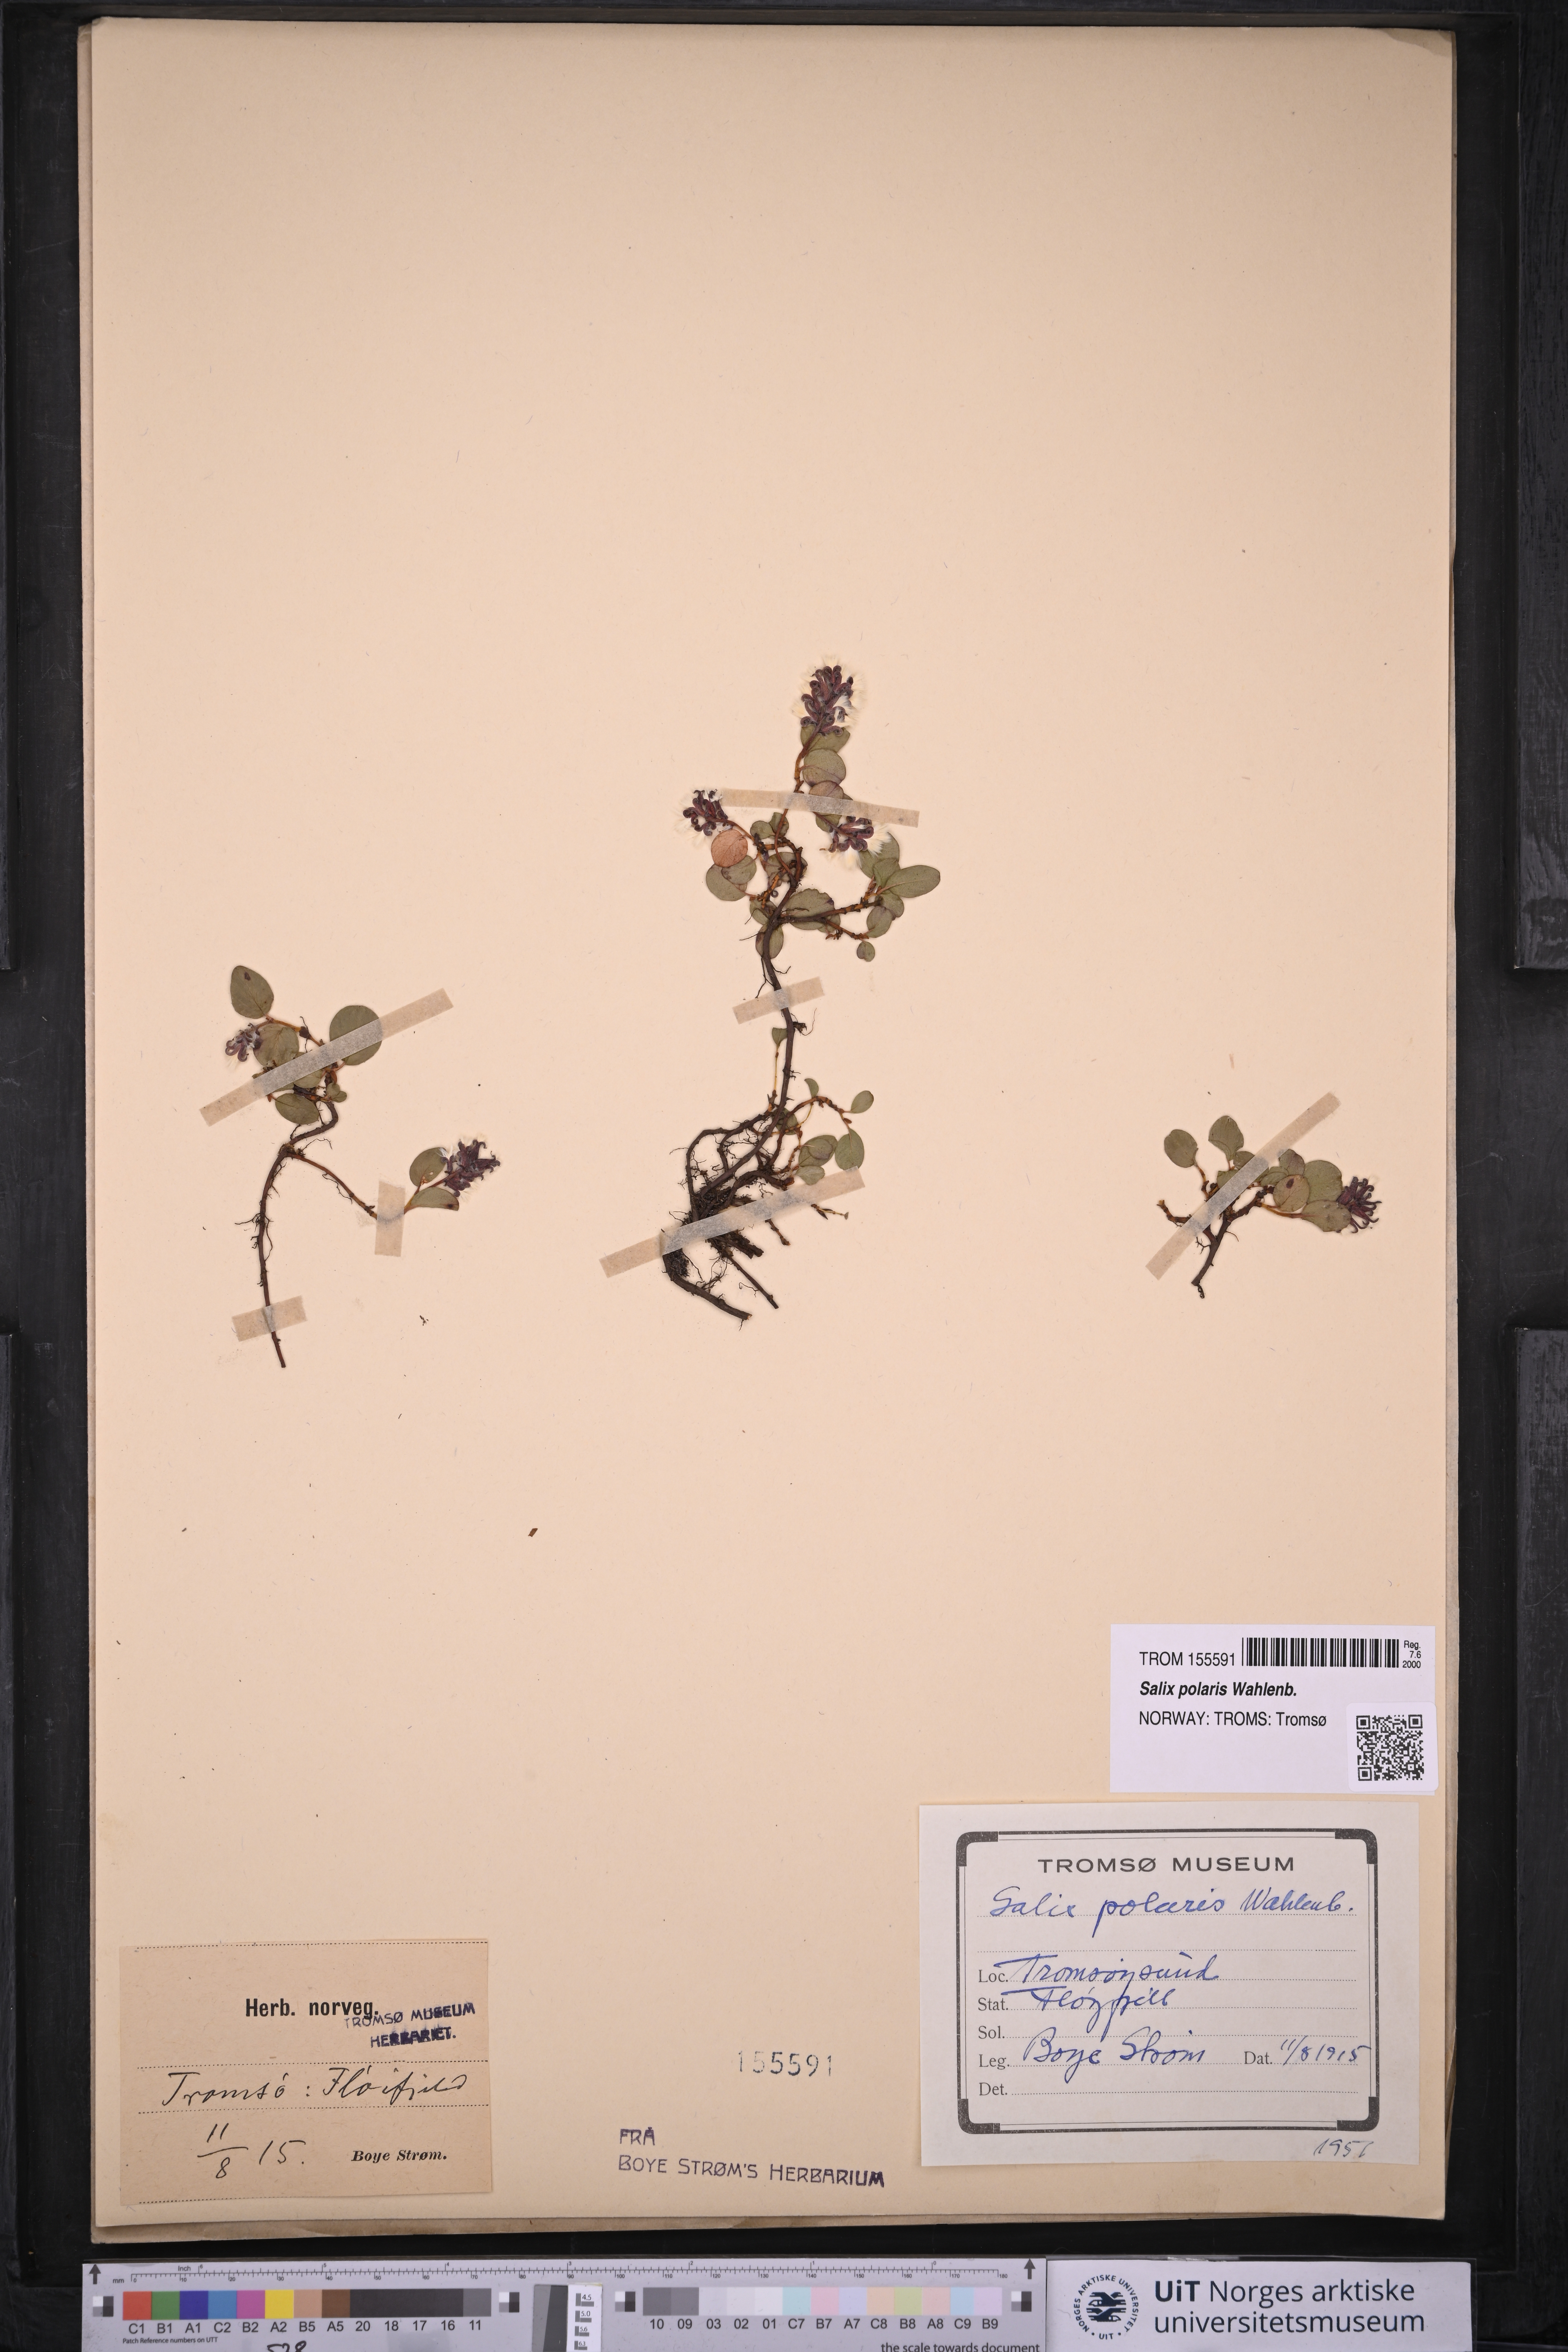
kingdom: Plantae
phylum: Tracheophyta
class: Magnoliopsida
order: Malpighiales
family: Salicaceae
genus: Salix
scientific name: Salix polaris
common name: Polar willow
